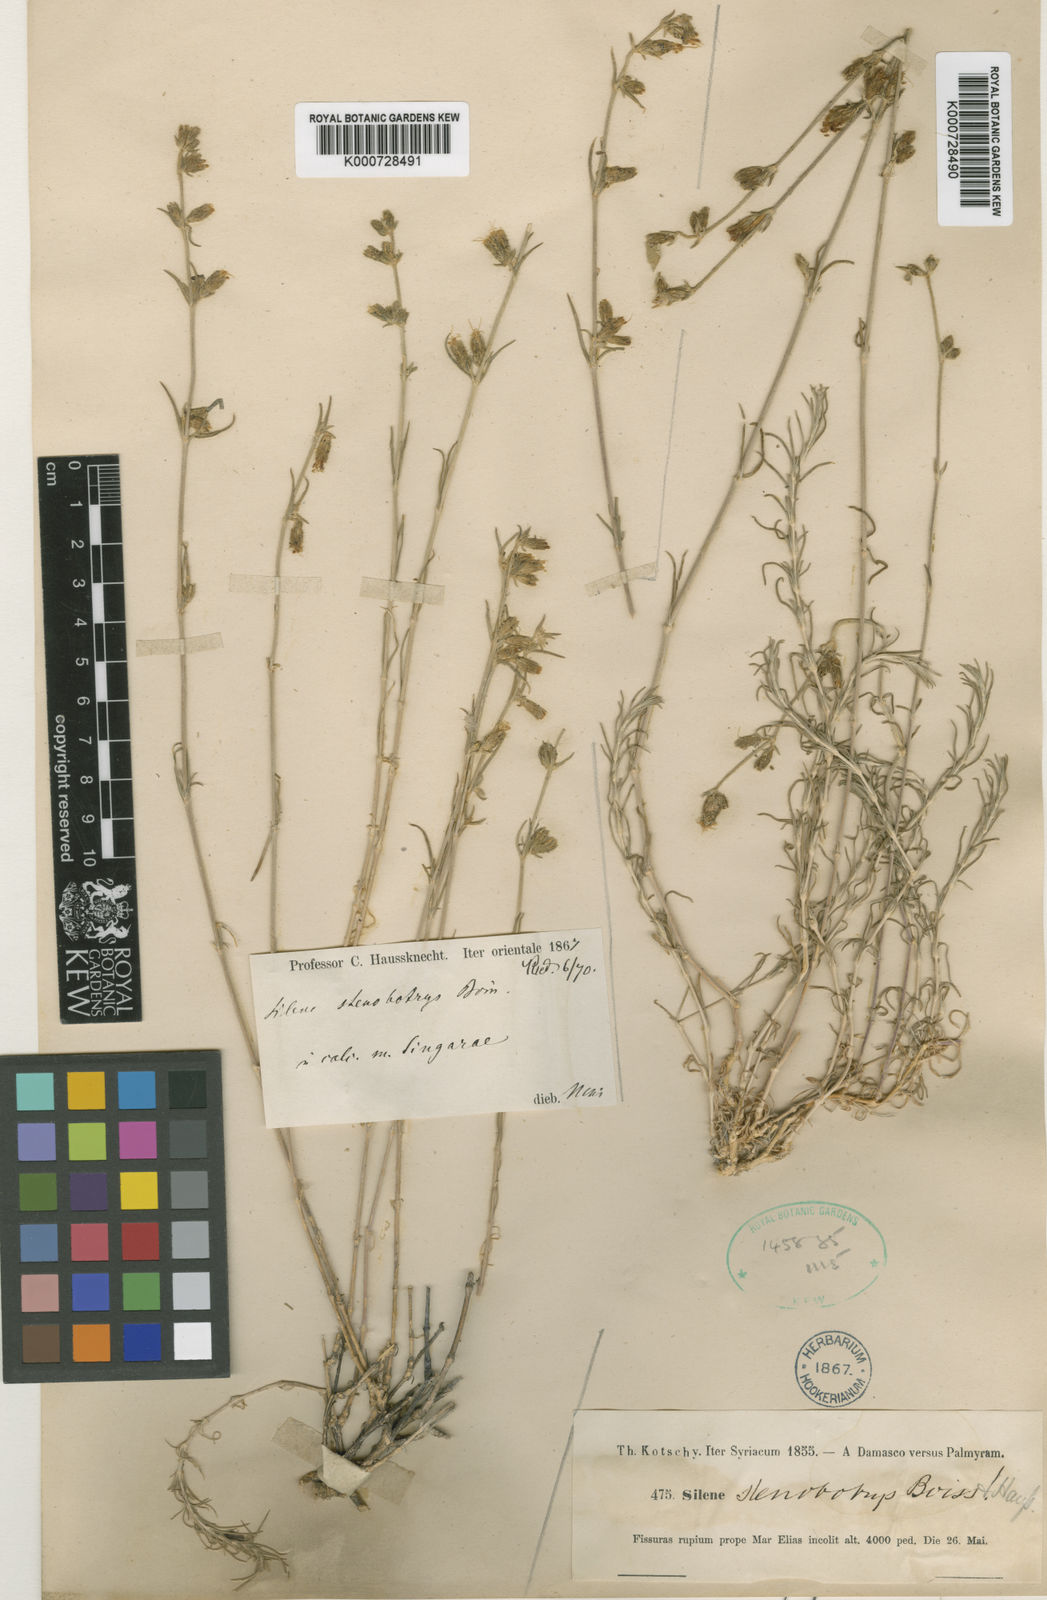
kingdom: Plantae
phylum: Tracheophyta
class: Magnoliopsida
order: Caryophyllales
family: Caryophyllaceae
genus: Silene
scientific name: Silene stenobotrys
